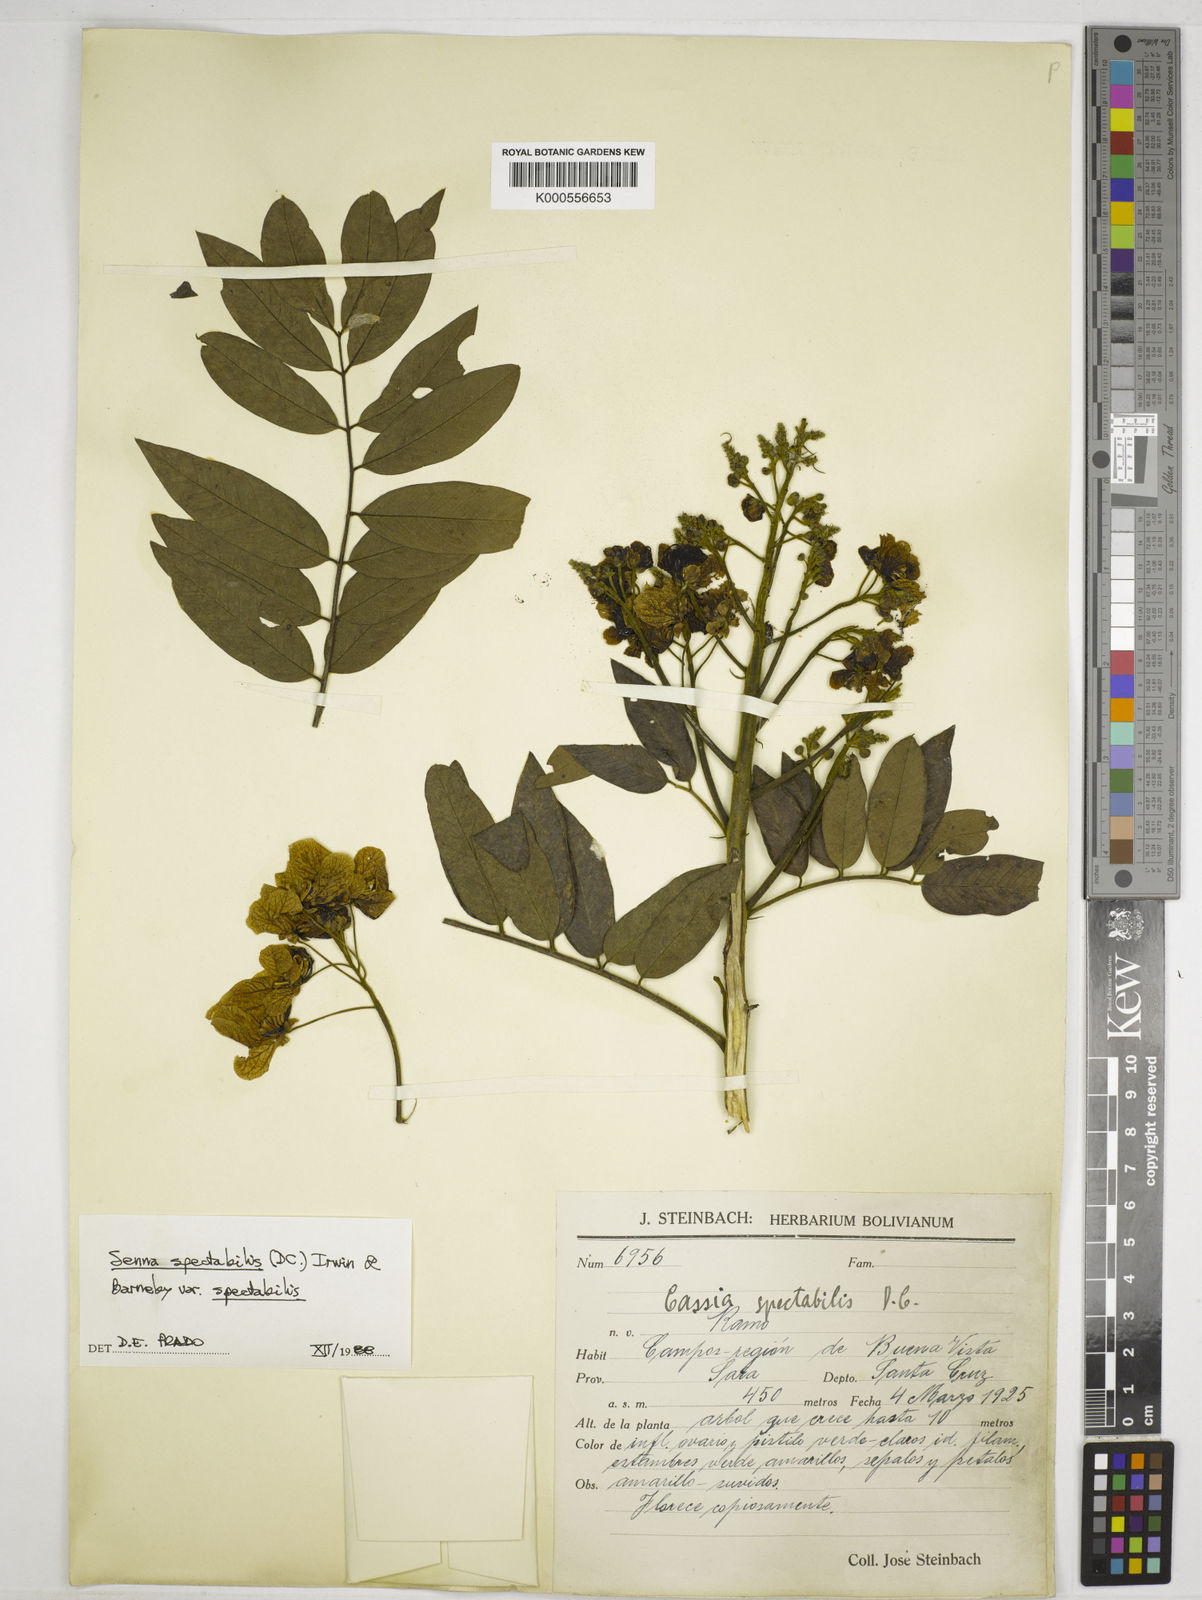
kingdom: Plantae
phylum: Tracheophyta
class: Magnoliopsida
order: Fabales
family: Fabaceae
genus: Senna
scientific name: Senna spectabilis
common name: Casia amarilla
